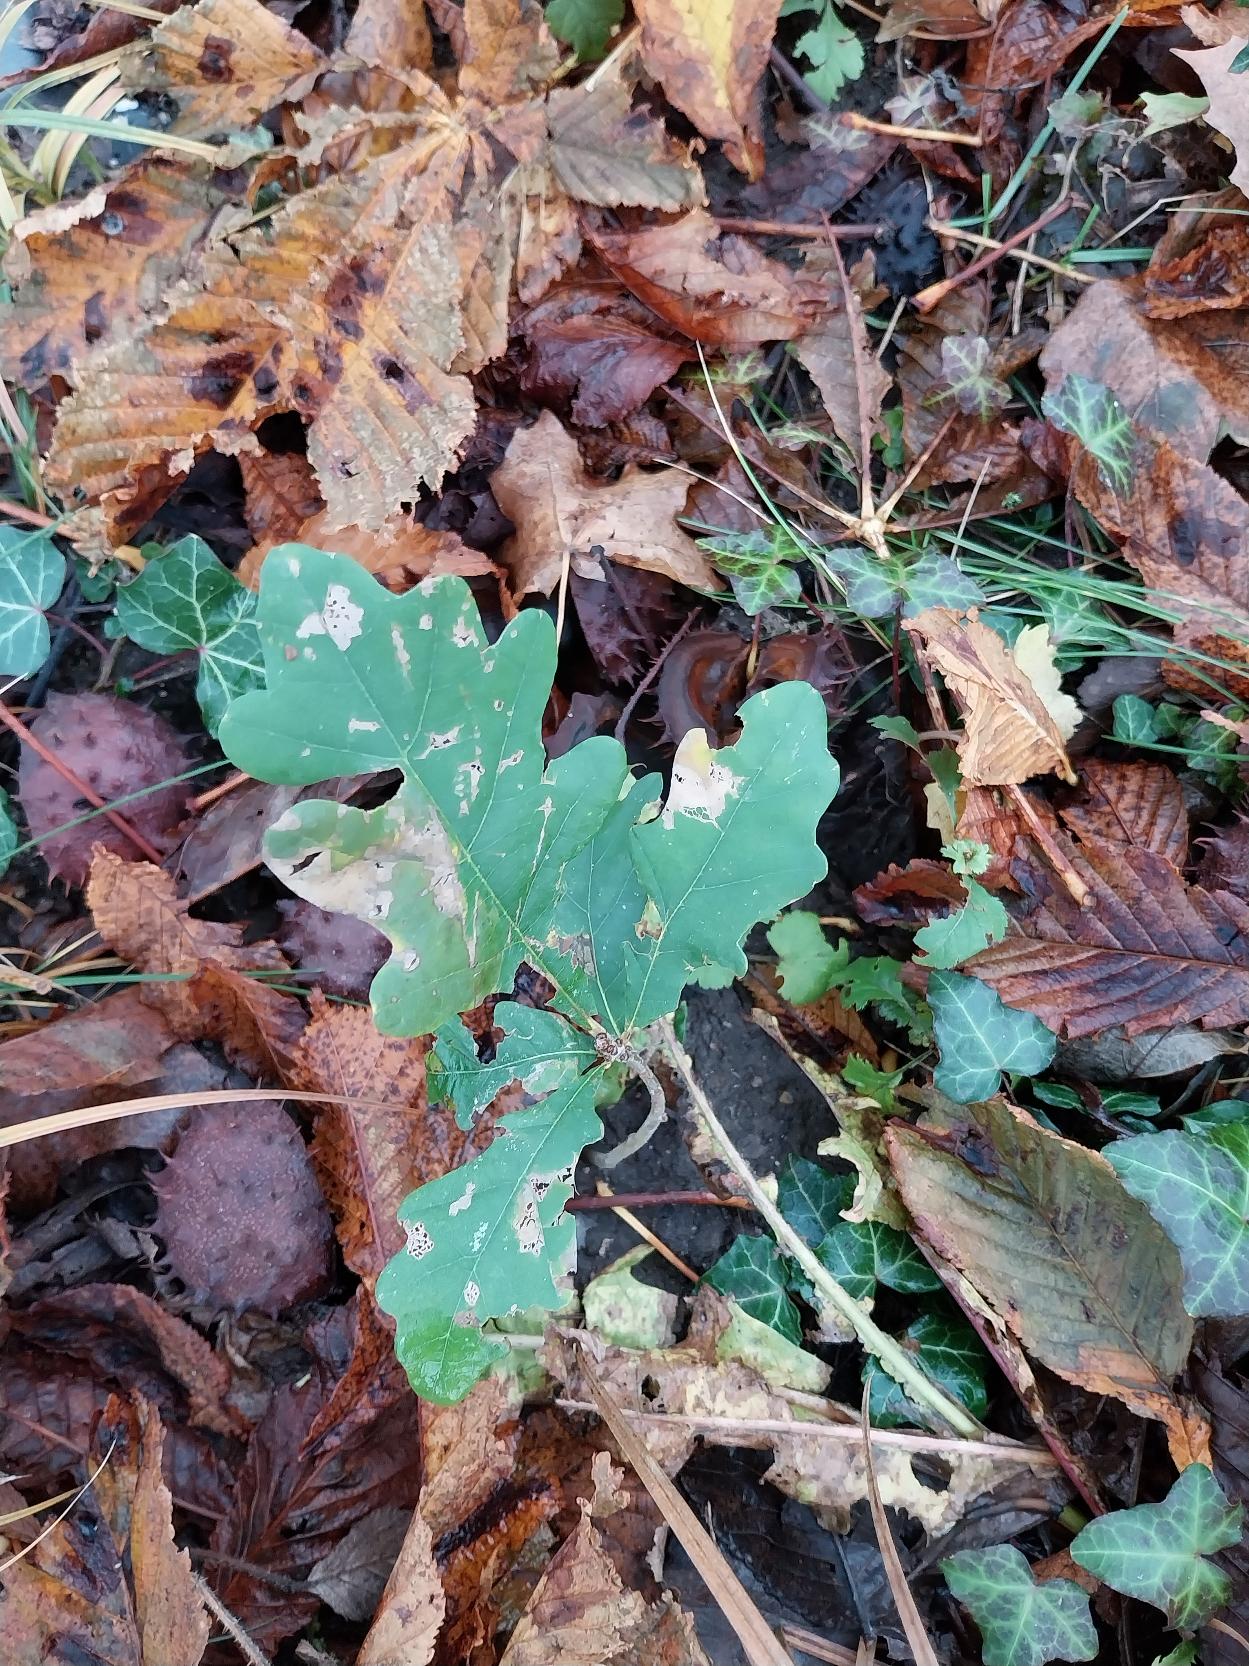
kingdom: Plantae
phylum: Tracheophyta
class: Magnoliopsida
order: Fagales
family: Fagaceae
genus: Quercus
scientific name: Quercus robur
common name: Stilk-eg/almindelig eg
